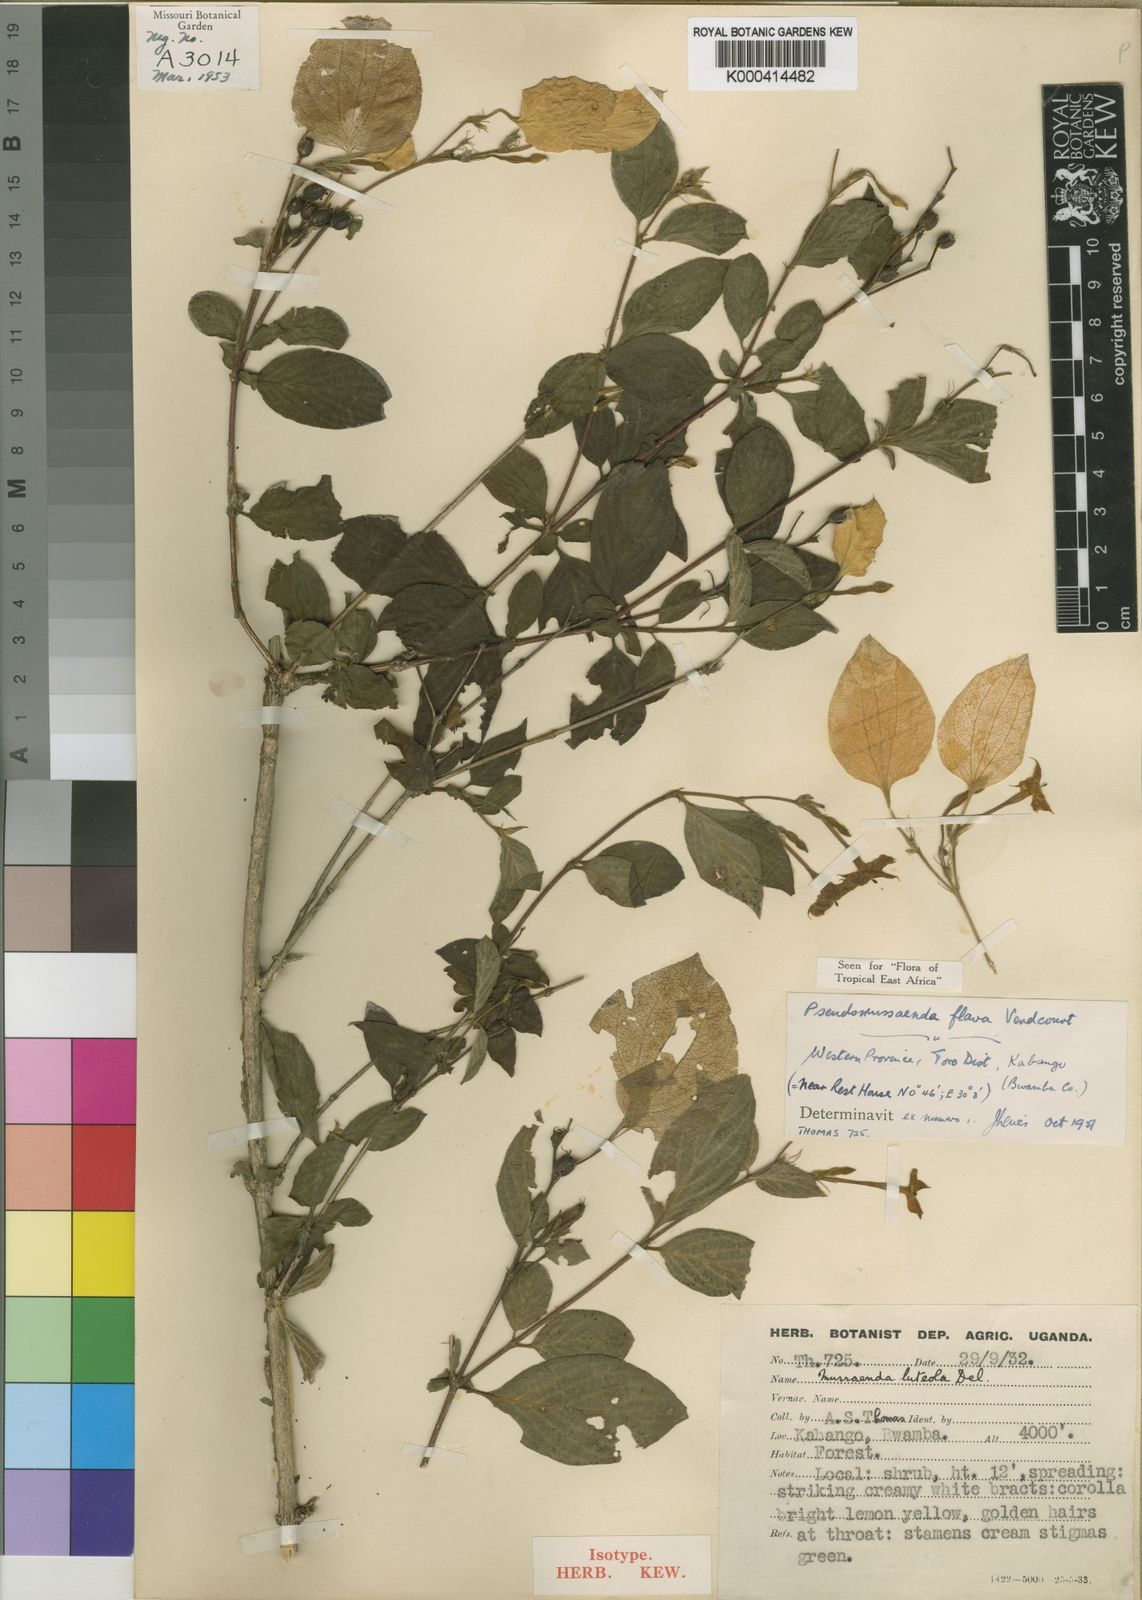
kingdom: Plantae
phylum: Tracheophyta
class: Magnoliopsida
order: Gentianales
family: Rubiaceae
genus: Pseudomussaenda
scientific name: Pseudomussaenda flava
